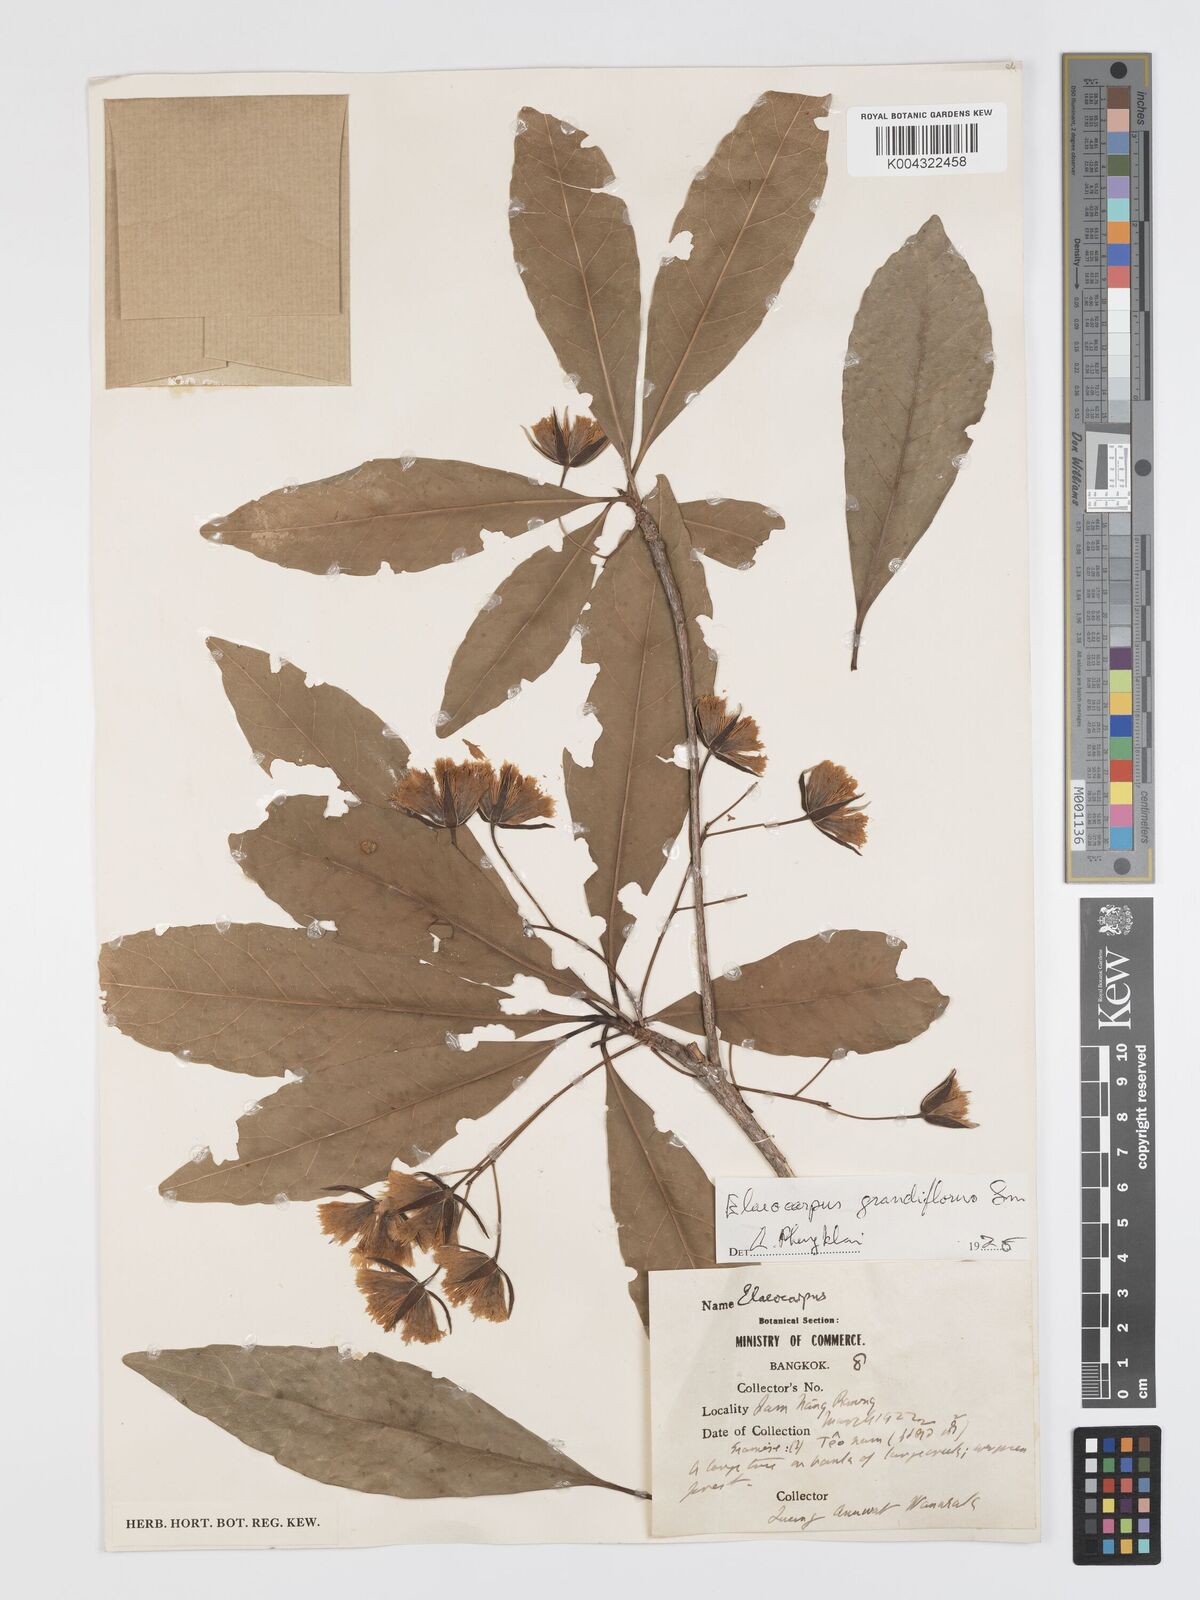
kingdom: Plantae
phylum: Tracheophyta
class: Magnoliopsida
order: Oxalidales
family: Elaeocarpaceae
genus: Elaeocarpus
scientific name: Elaeocarpus grandiflorus
